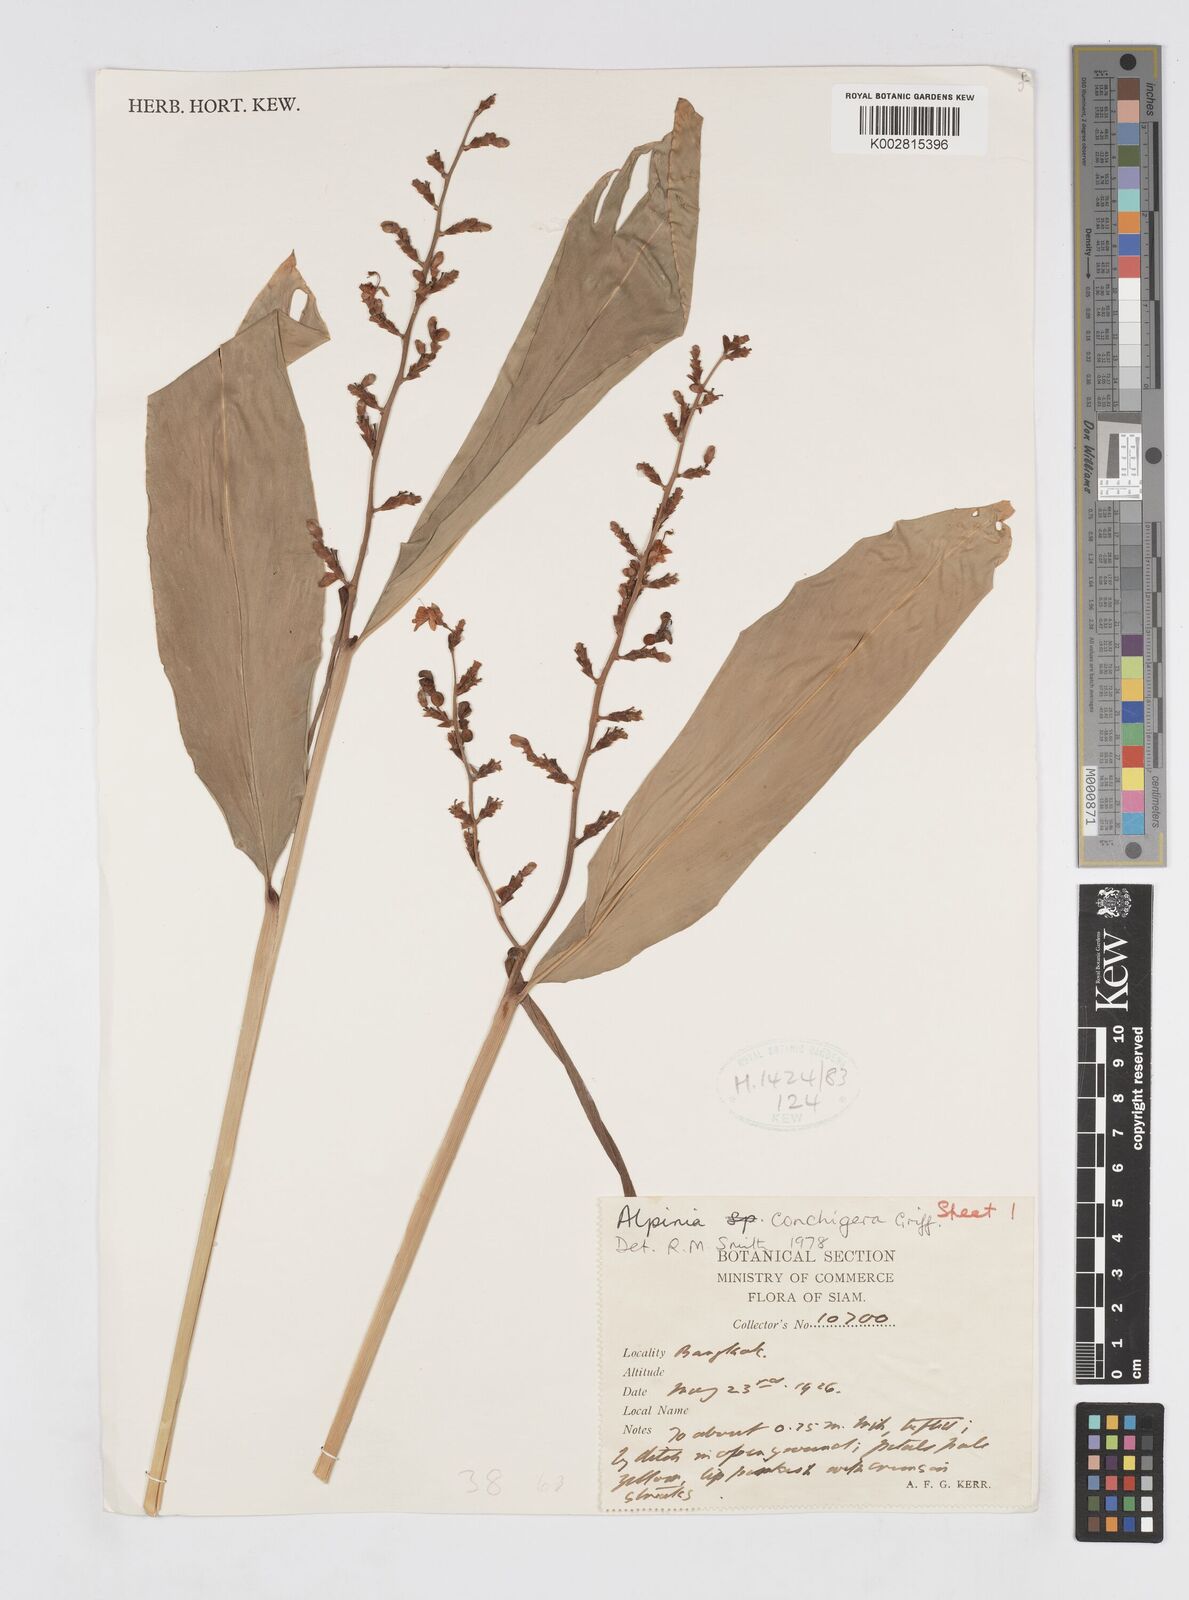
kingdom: Plantae
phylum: Tracheophyta
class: Liliopsida
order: Zingiberales
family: Zingiberaceae
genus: Alpinia
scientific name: Alpinia conchigera
